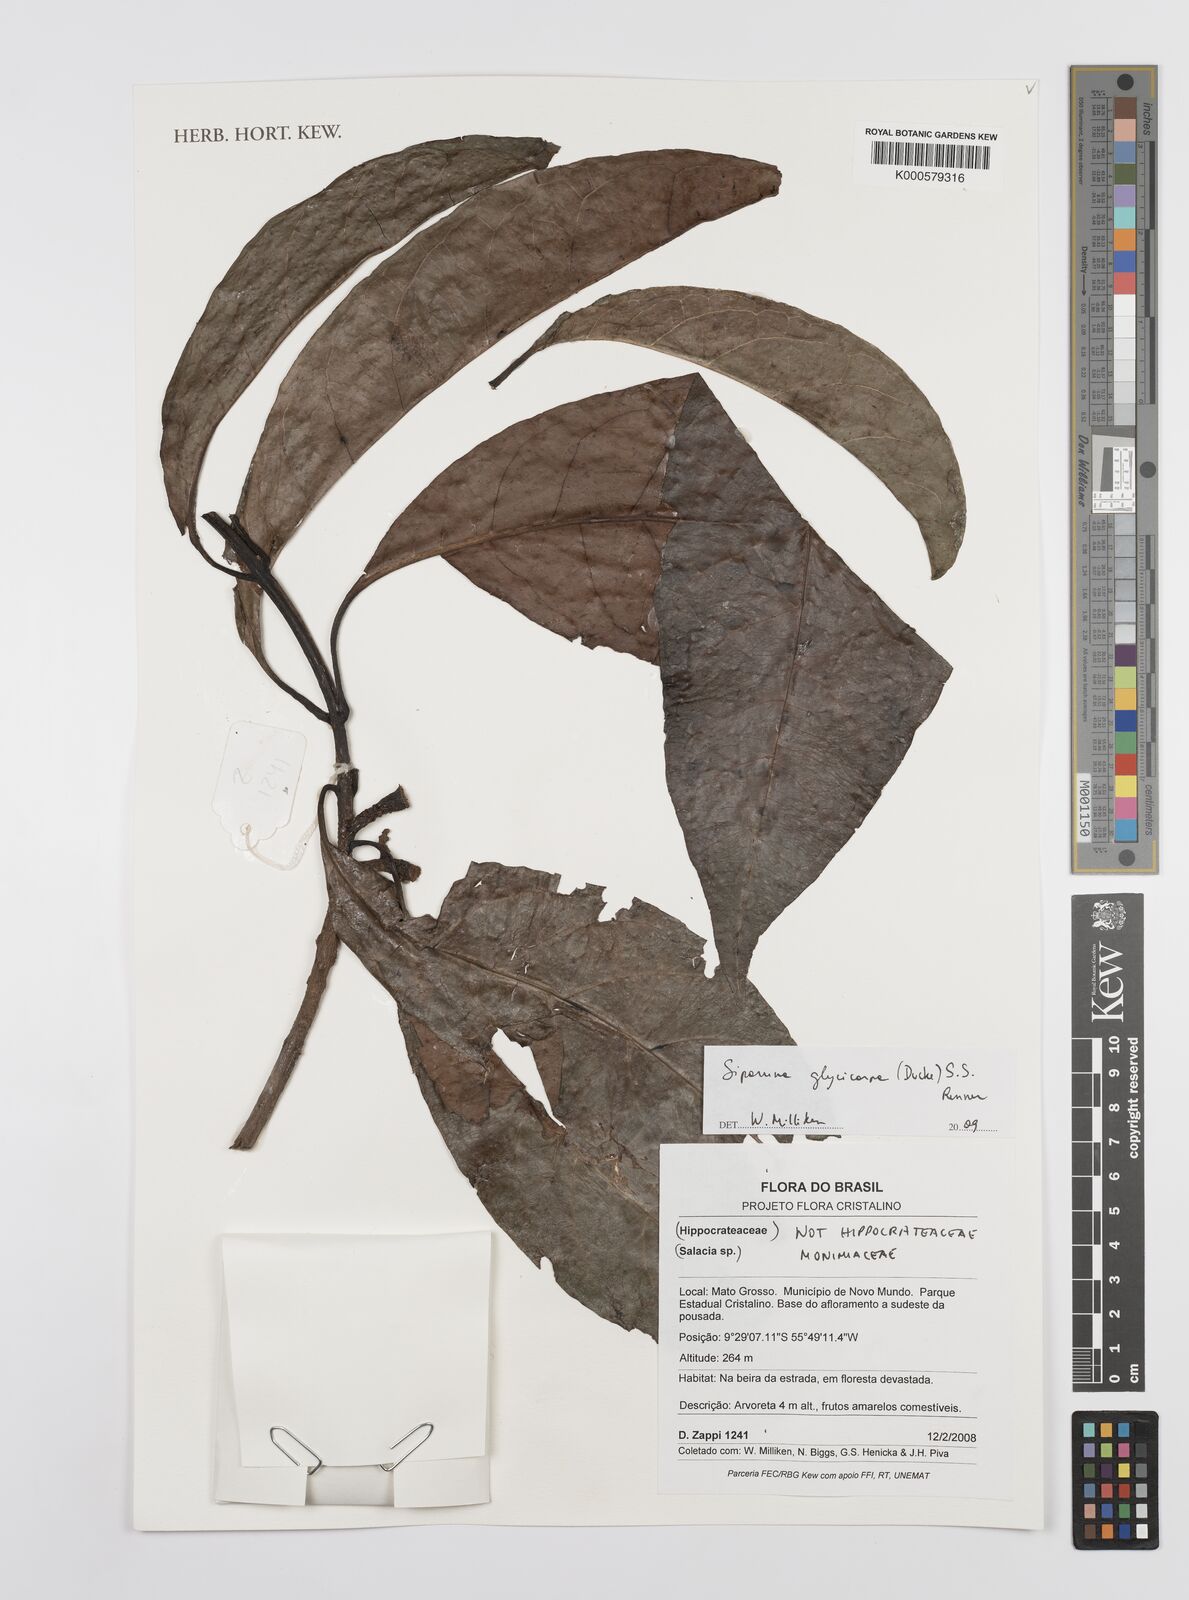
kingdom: Plantae
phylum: Tracheophyta
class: Magnoliopsida
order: Laurales
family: Siparunaceae
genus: Siparuna
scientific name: Siparuna glycycarpa
